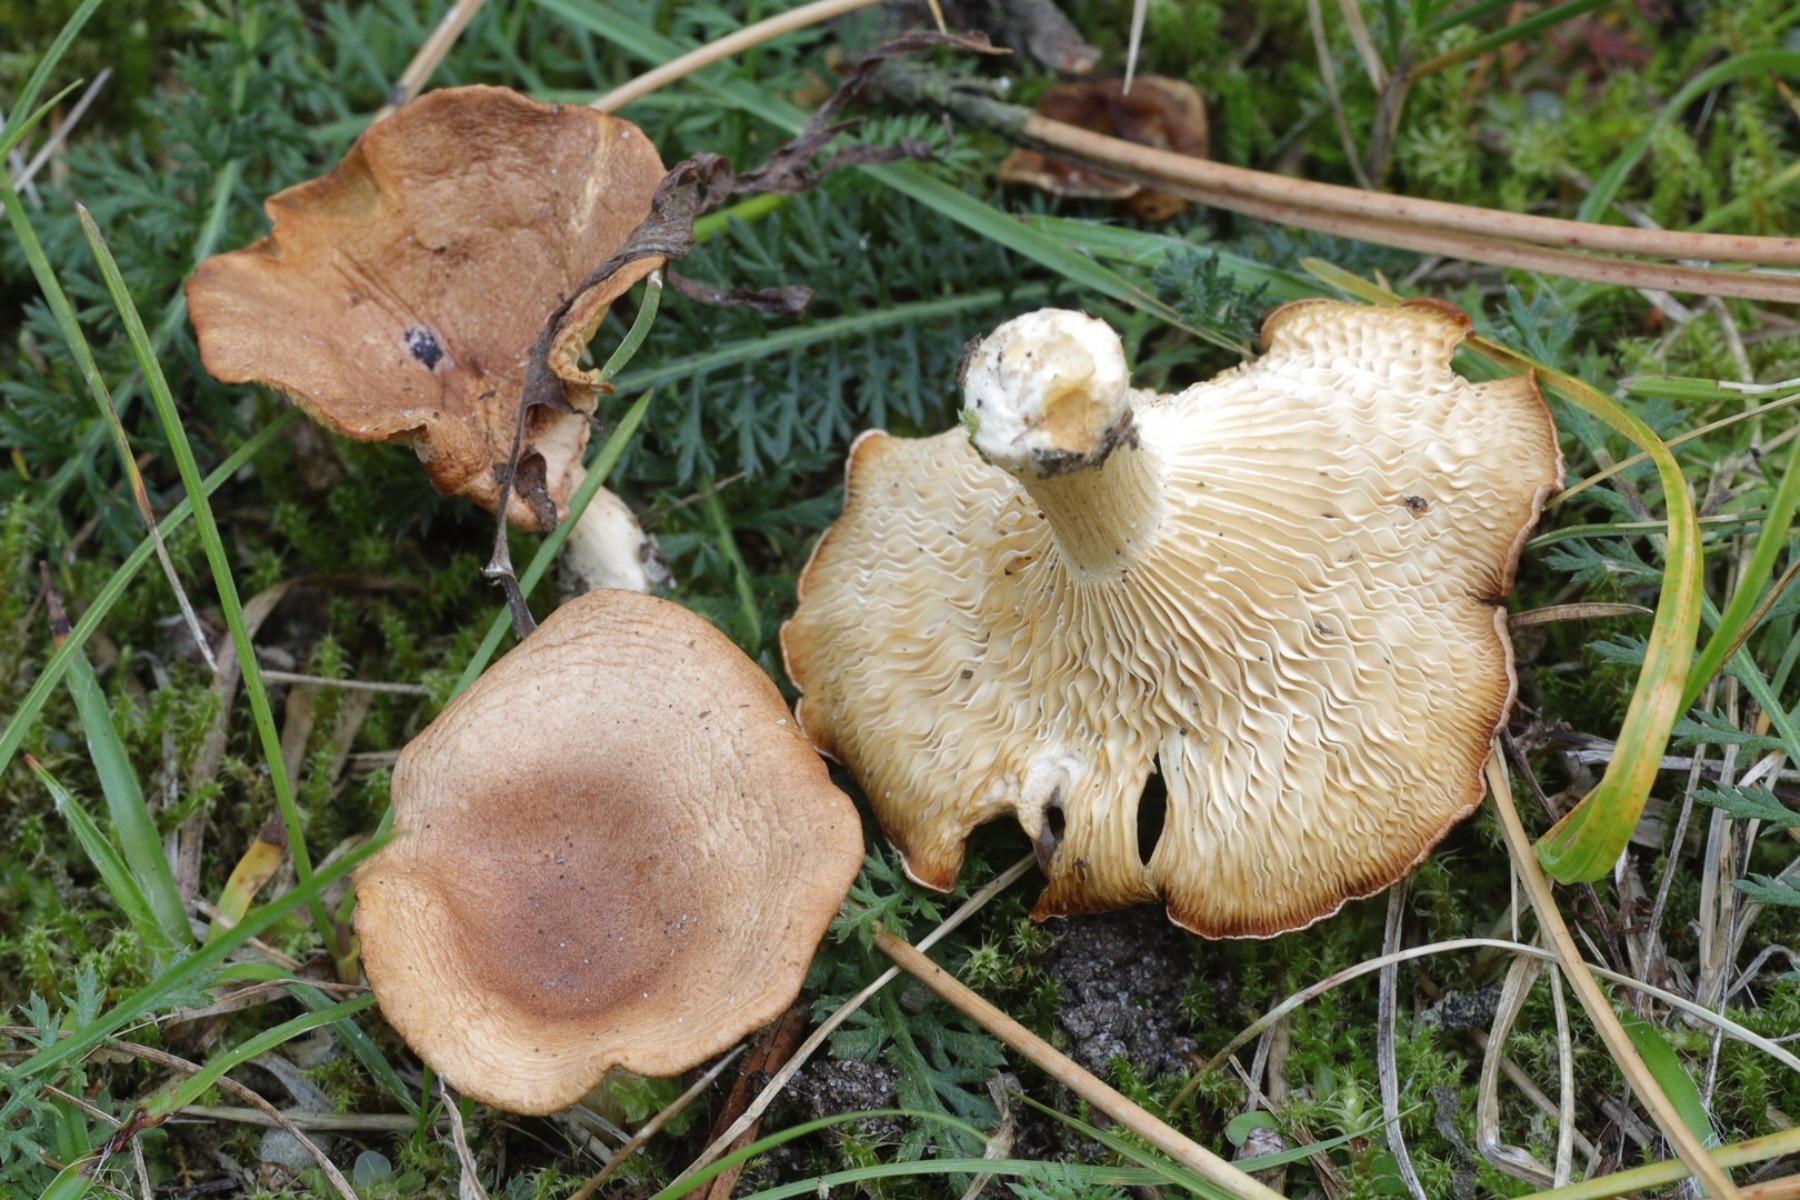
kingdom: Fungi
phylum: Basidiomycota
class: Agaricomycetes
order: Agaricales
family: Tricholomataceae
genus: Infundibulicybe
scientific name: Infundibulicybe
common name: tragthat
